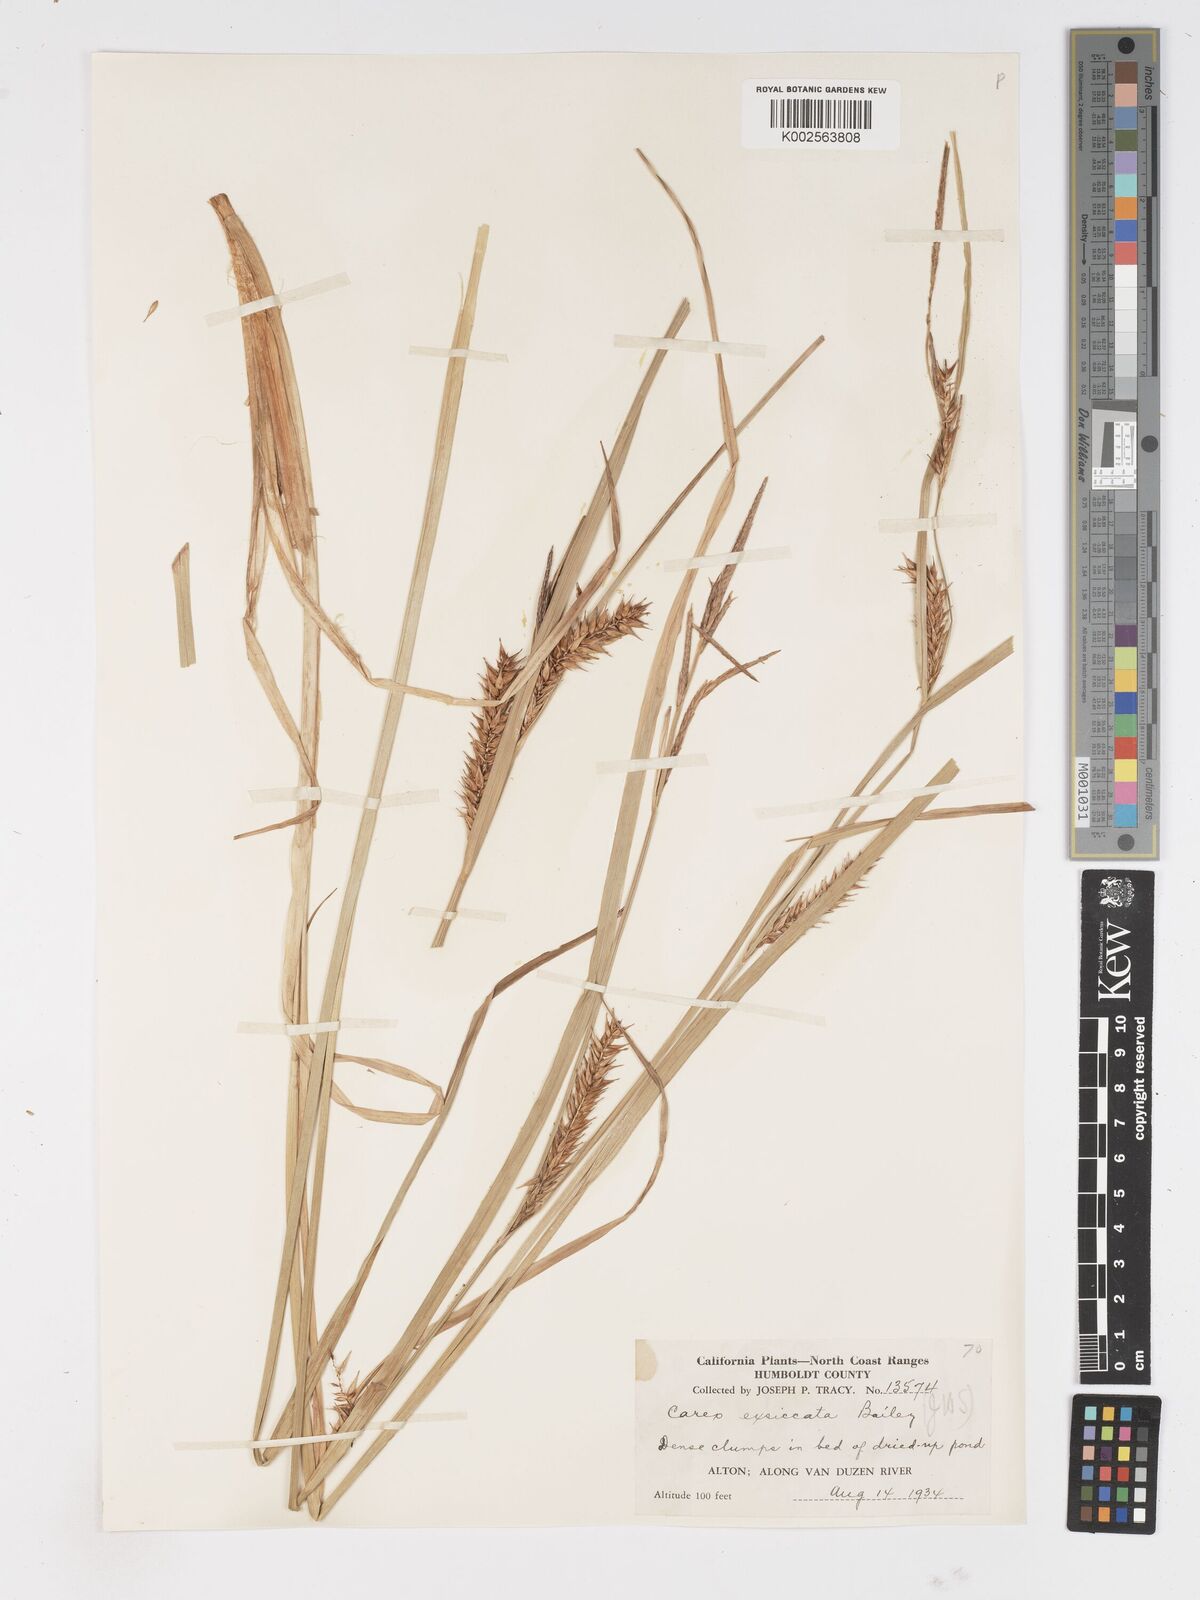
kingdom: Plantae
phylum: Tracheophyta
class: Liliopsida
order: Poales
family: Cyperaceae
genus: Carex
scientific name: Carex exsiccata
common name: Beaked sedge
